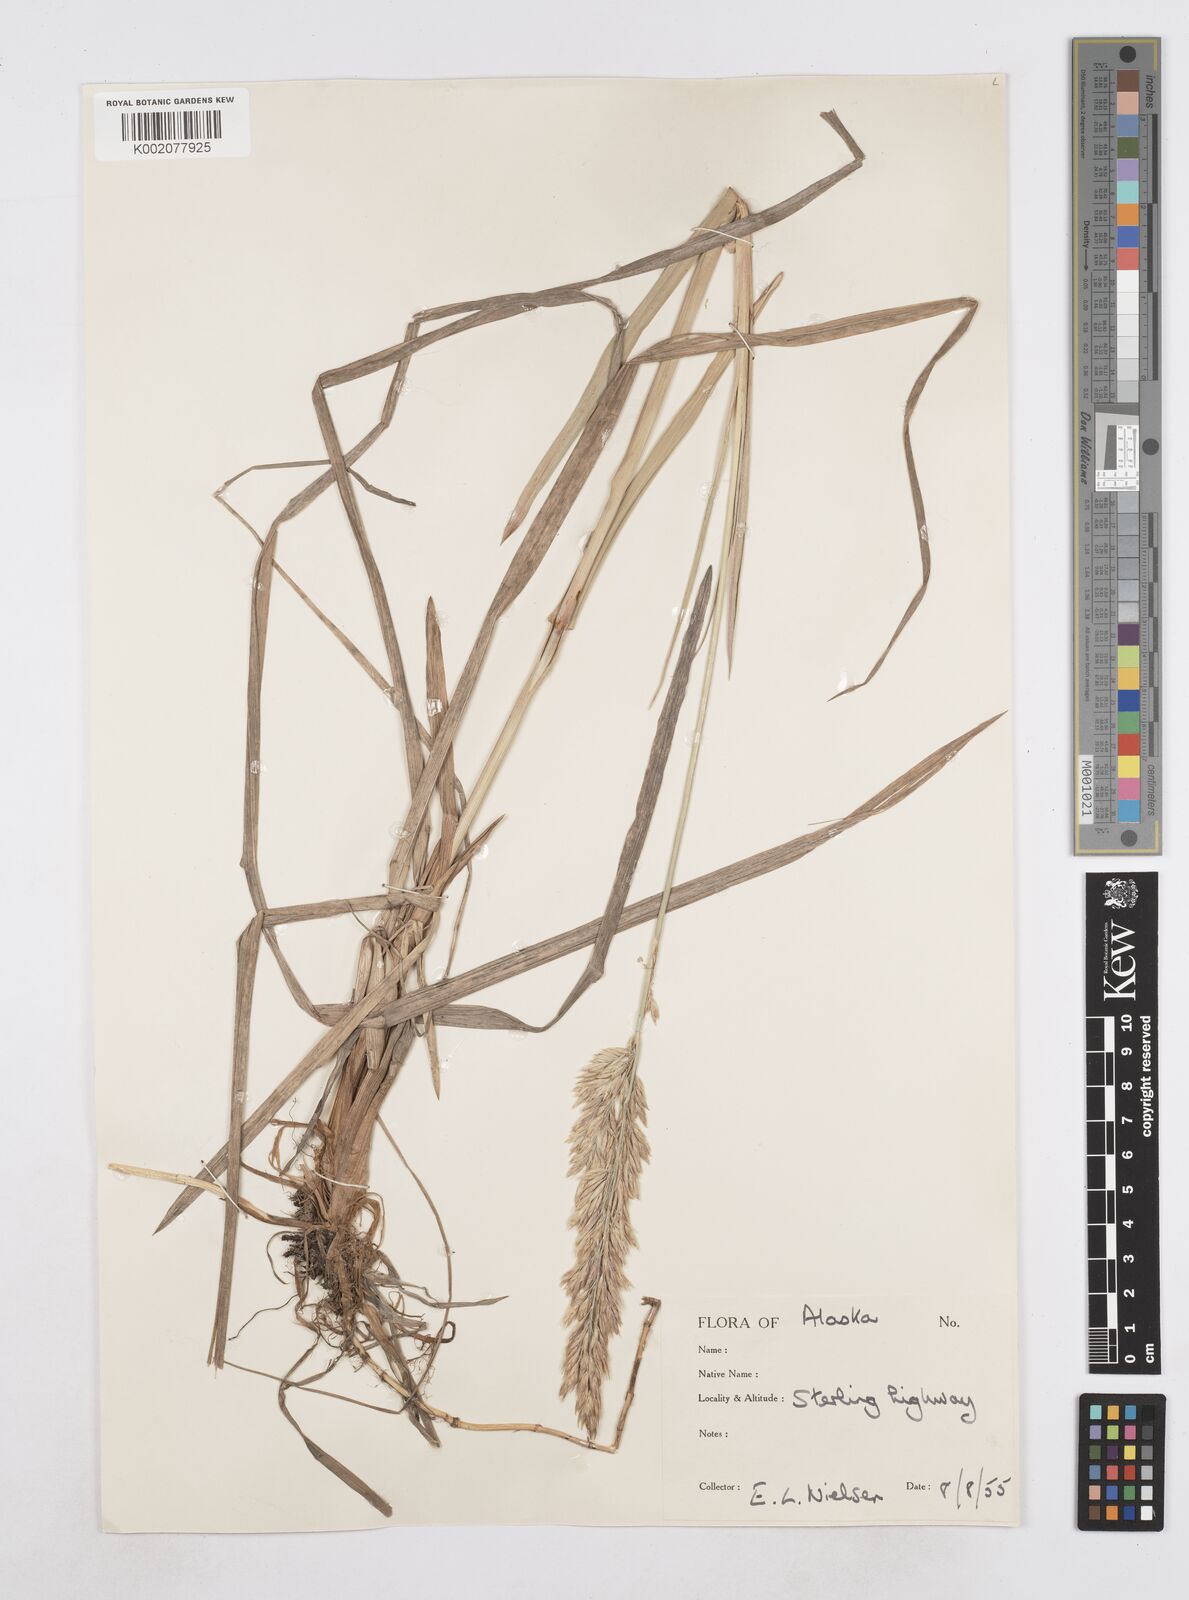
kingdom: Plantae
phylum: Tracheophyta
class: Liliopsida
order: Poales
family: Poaceae
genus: Arctopoa
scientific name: Arctopoa eminens
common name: Eminent bluegrass
